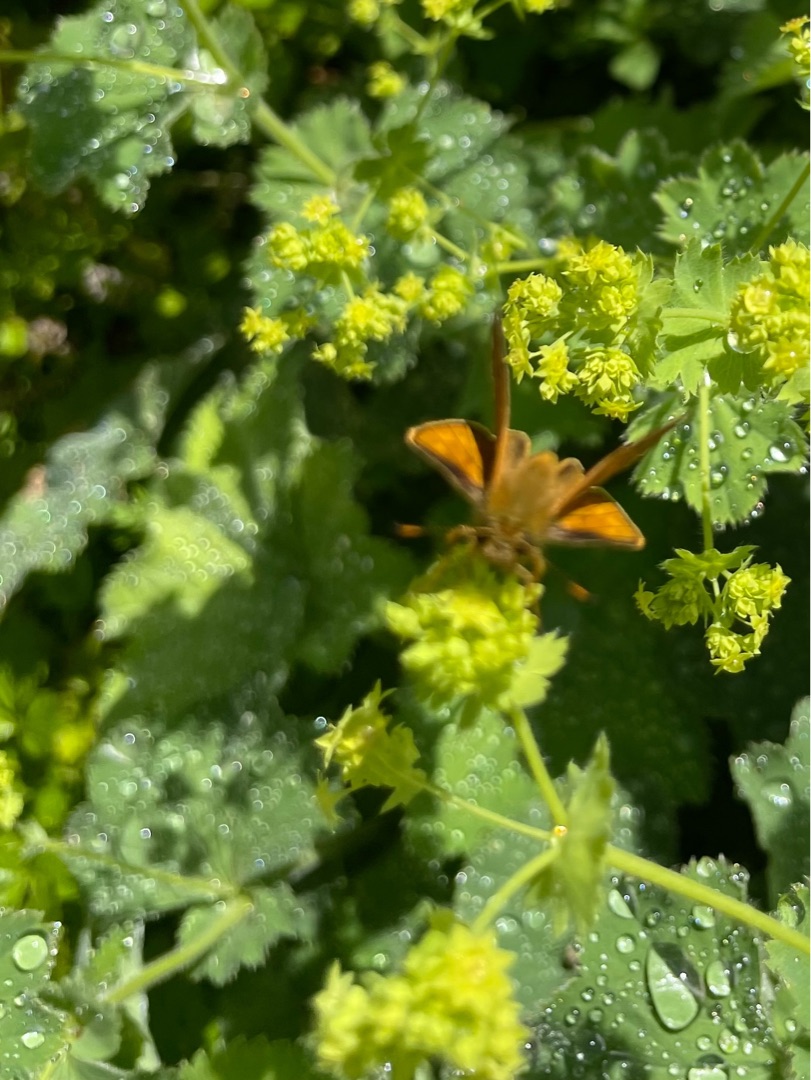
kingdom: Animalia
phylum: Arthropoda
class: Insecta
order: Lepidoptera
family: Hesperiidae
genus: Ochlodes
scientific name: Ochlodes venata
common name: Stor bredpande
